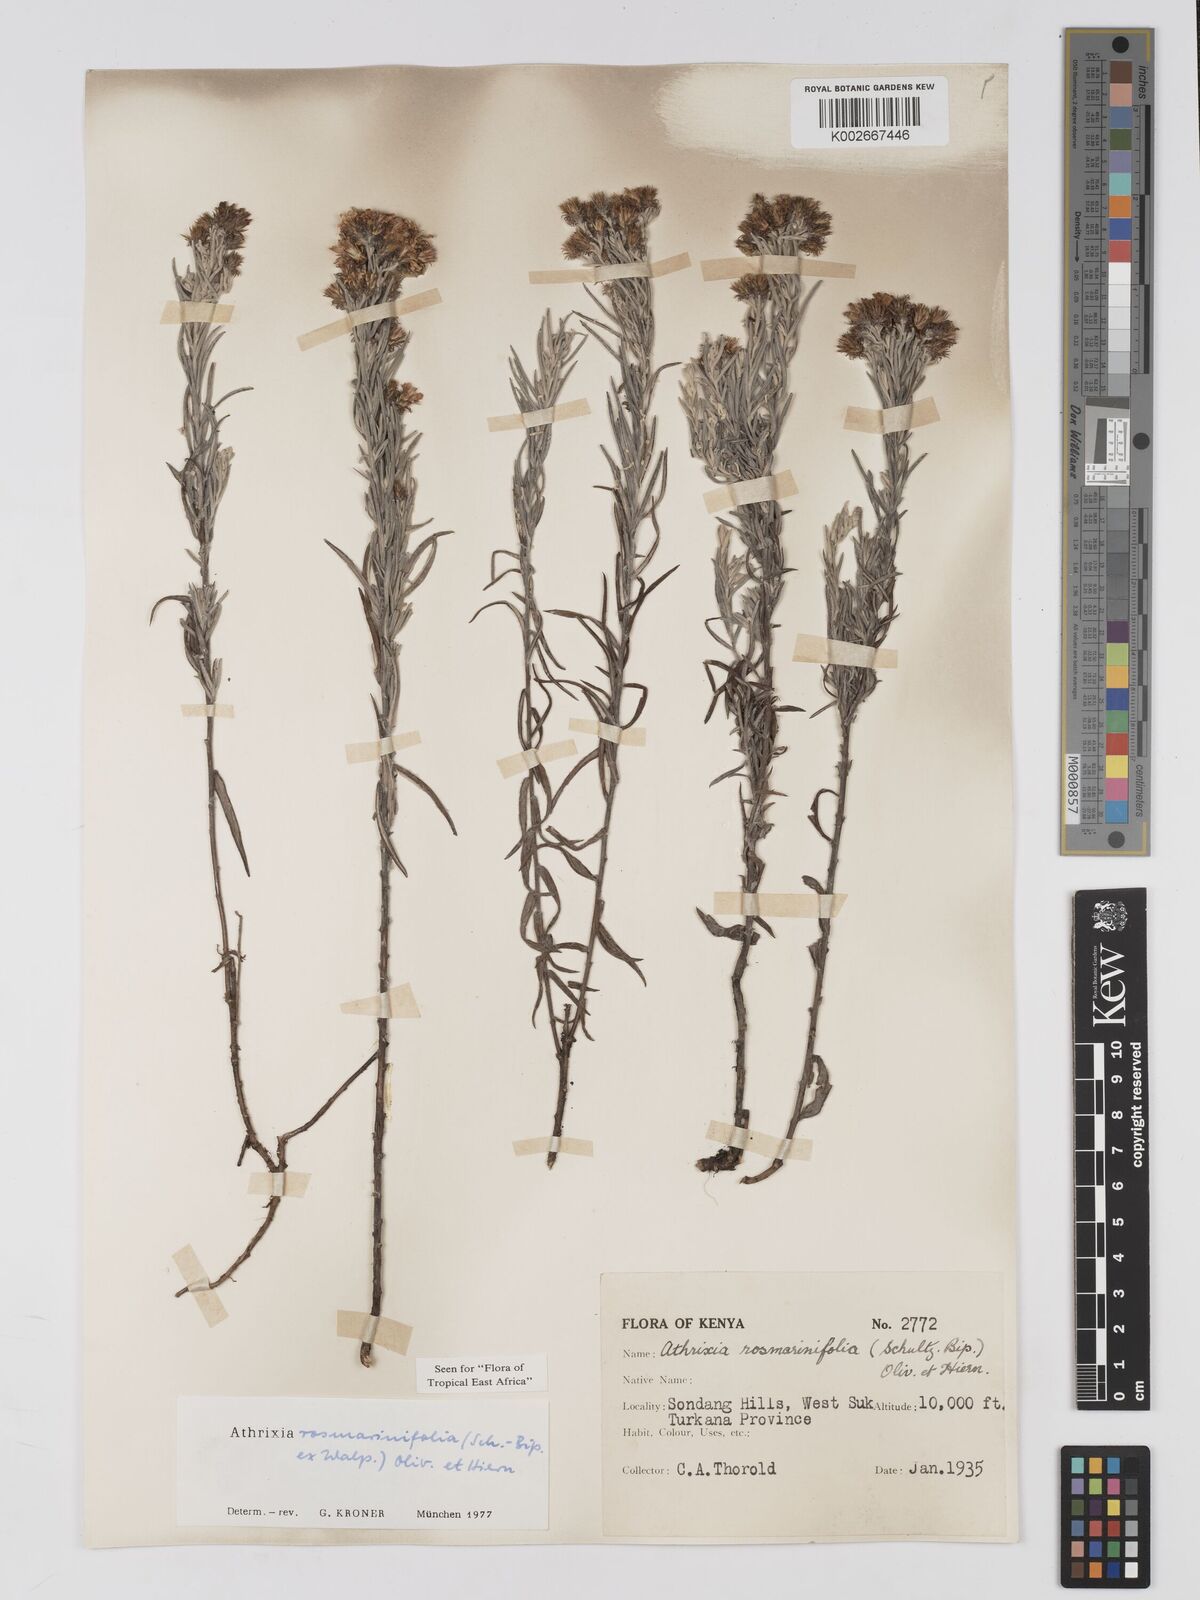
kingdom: Plantae
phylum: Tracheophyta
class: Magnoliopsida
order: Asterales
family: Asteraceae
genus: Athrixia
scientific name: Athrixia rosmarinifolia
